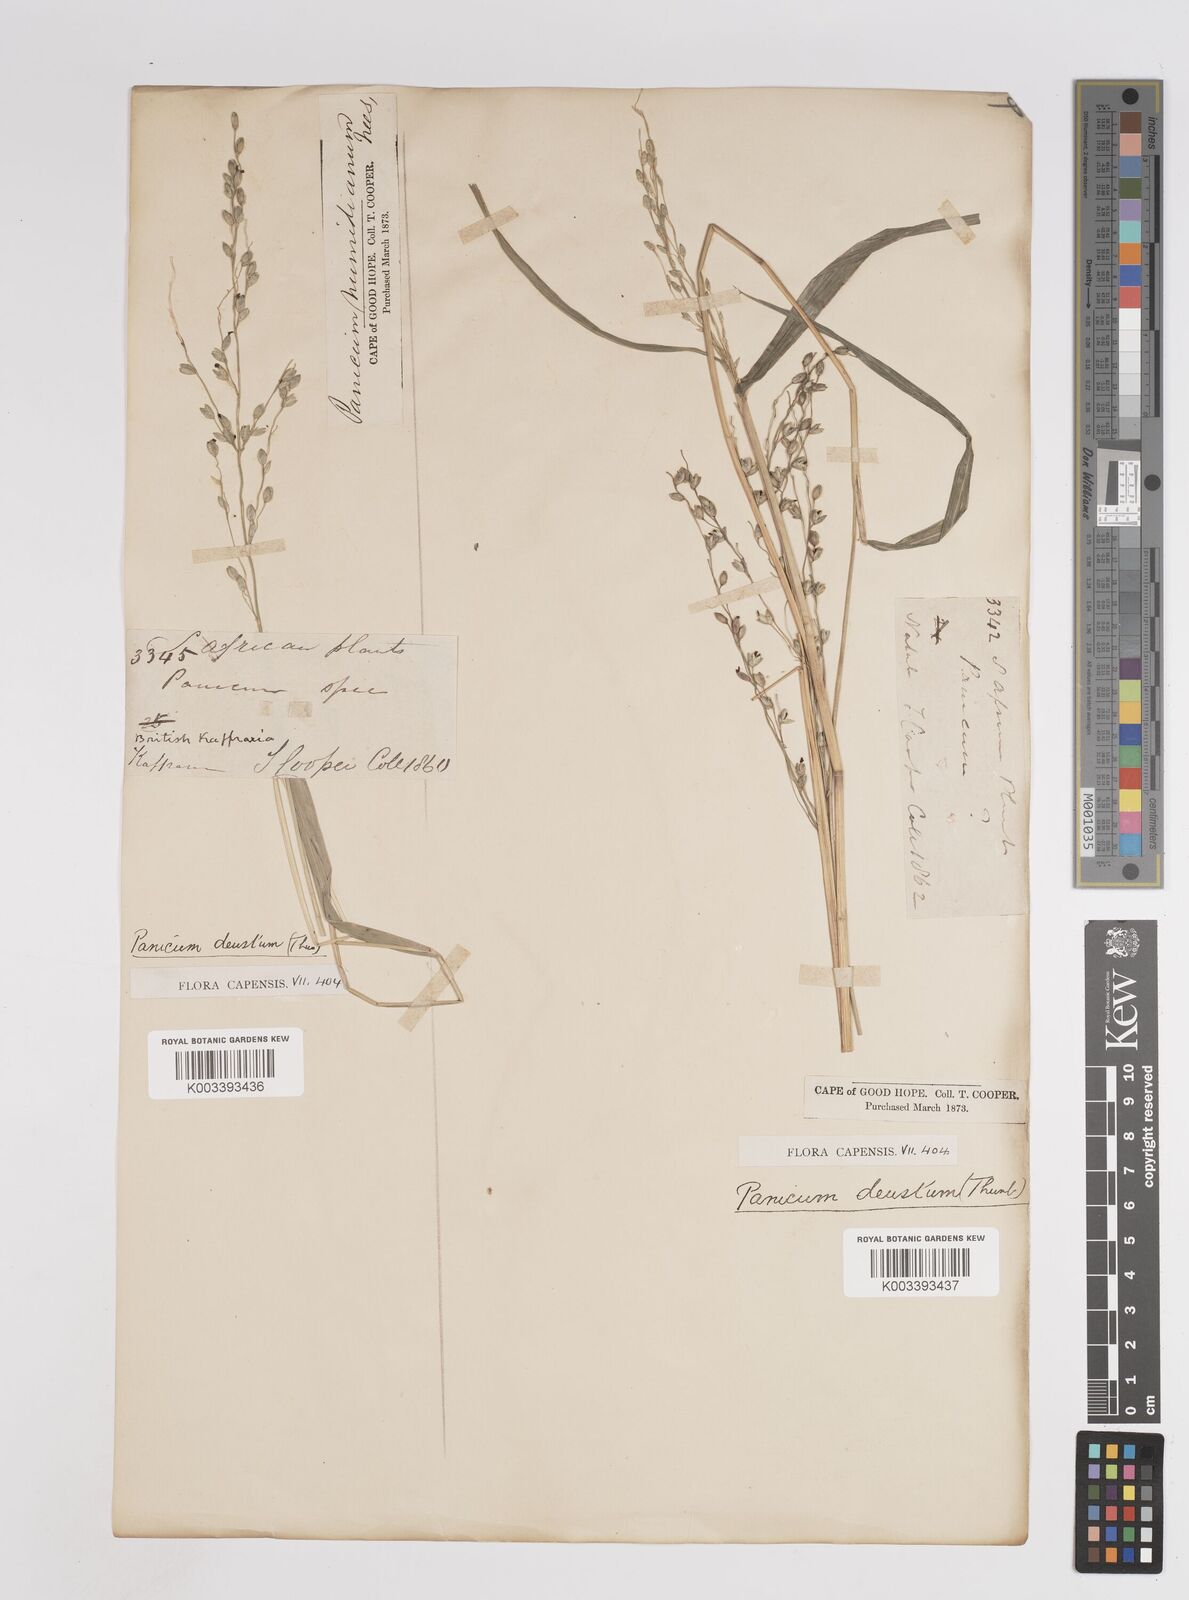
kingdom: Plantae
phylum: Tracheophyta
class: Liliopsida
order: Poales
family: Poaceae
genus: Panicum
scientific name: Panicum deustum
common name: Reed panicum
